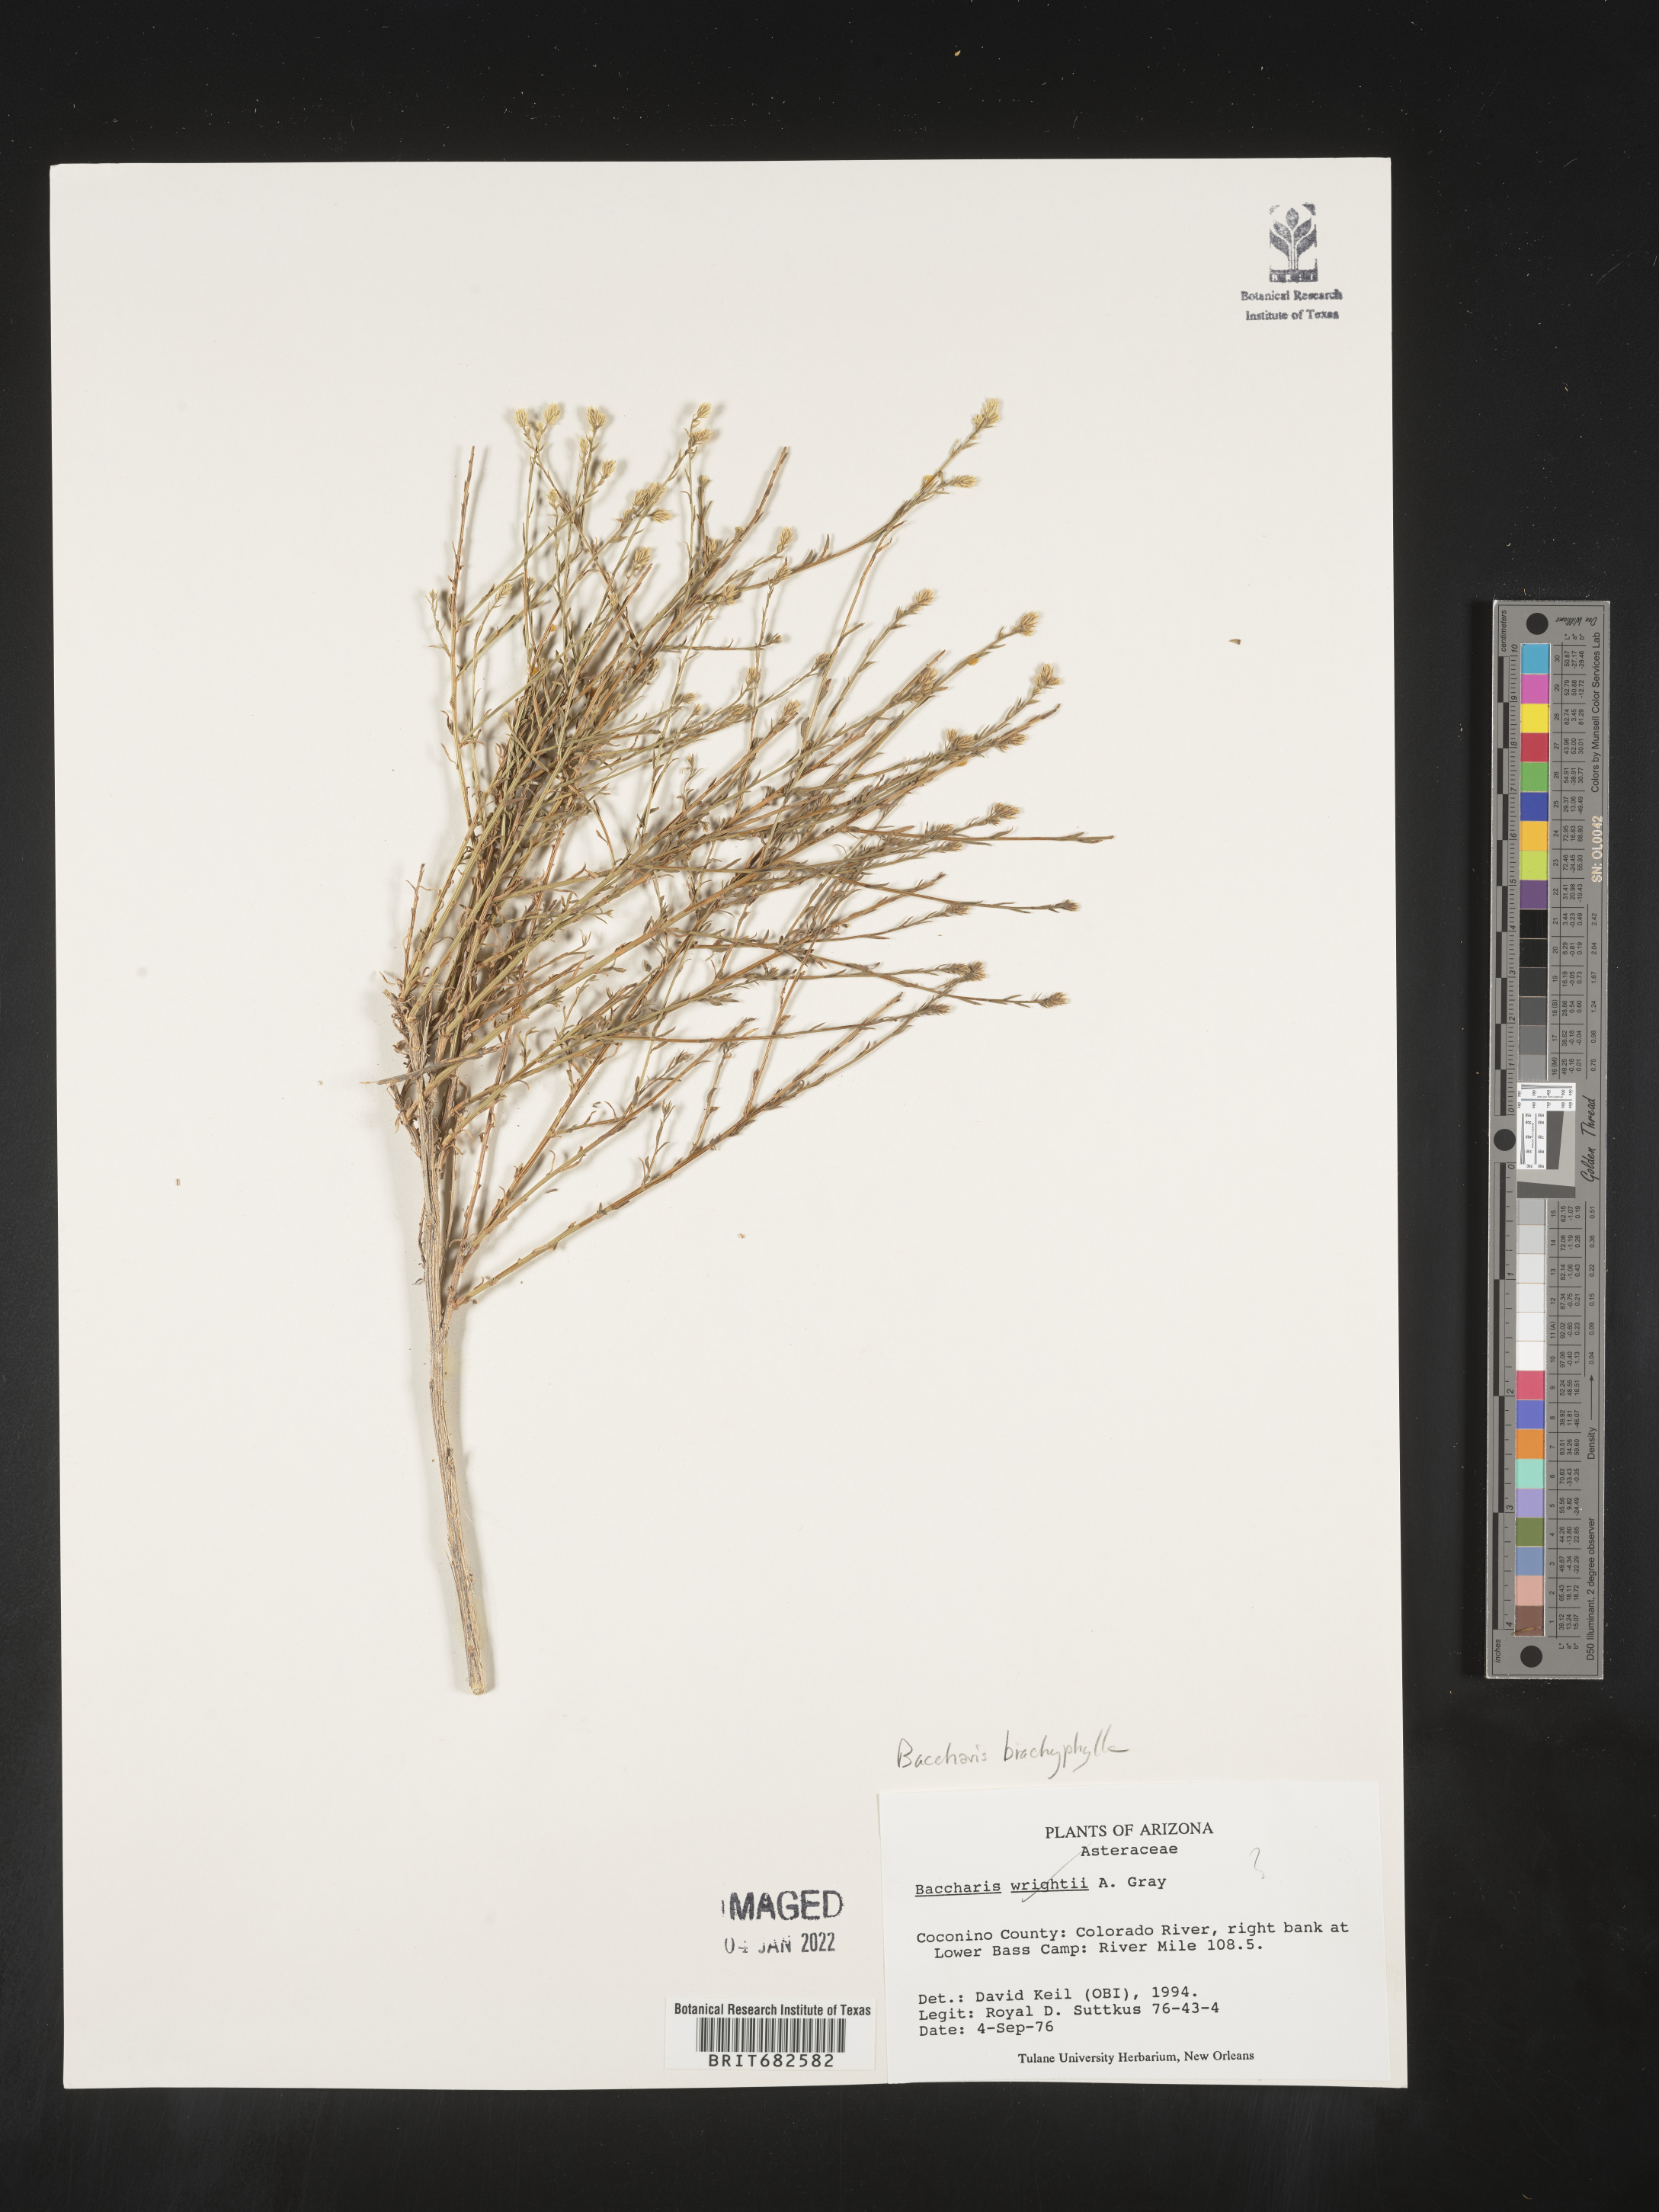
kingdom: Plantae
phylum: Tracheophyta
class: Magnoliopsida
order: Asterales
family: Asteraceae
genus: Baccharis
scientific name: Baccharis brachyphylla
